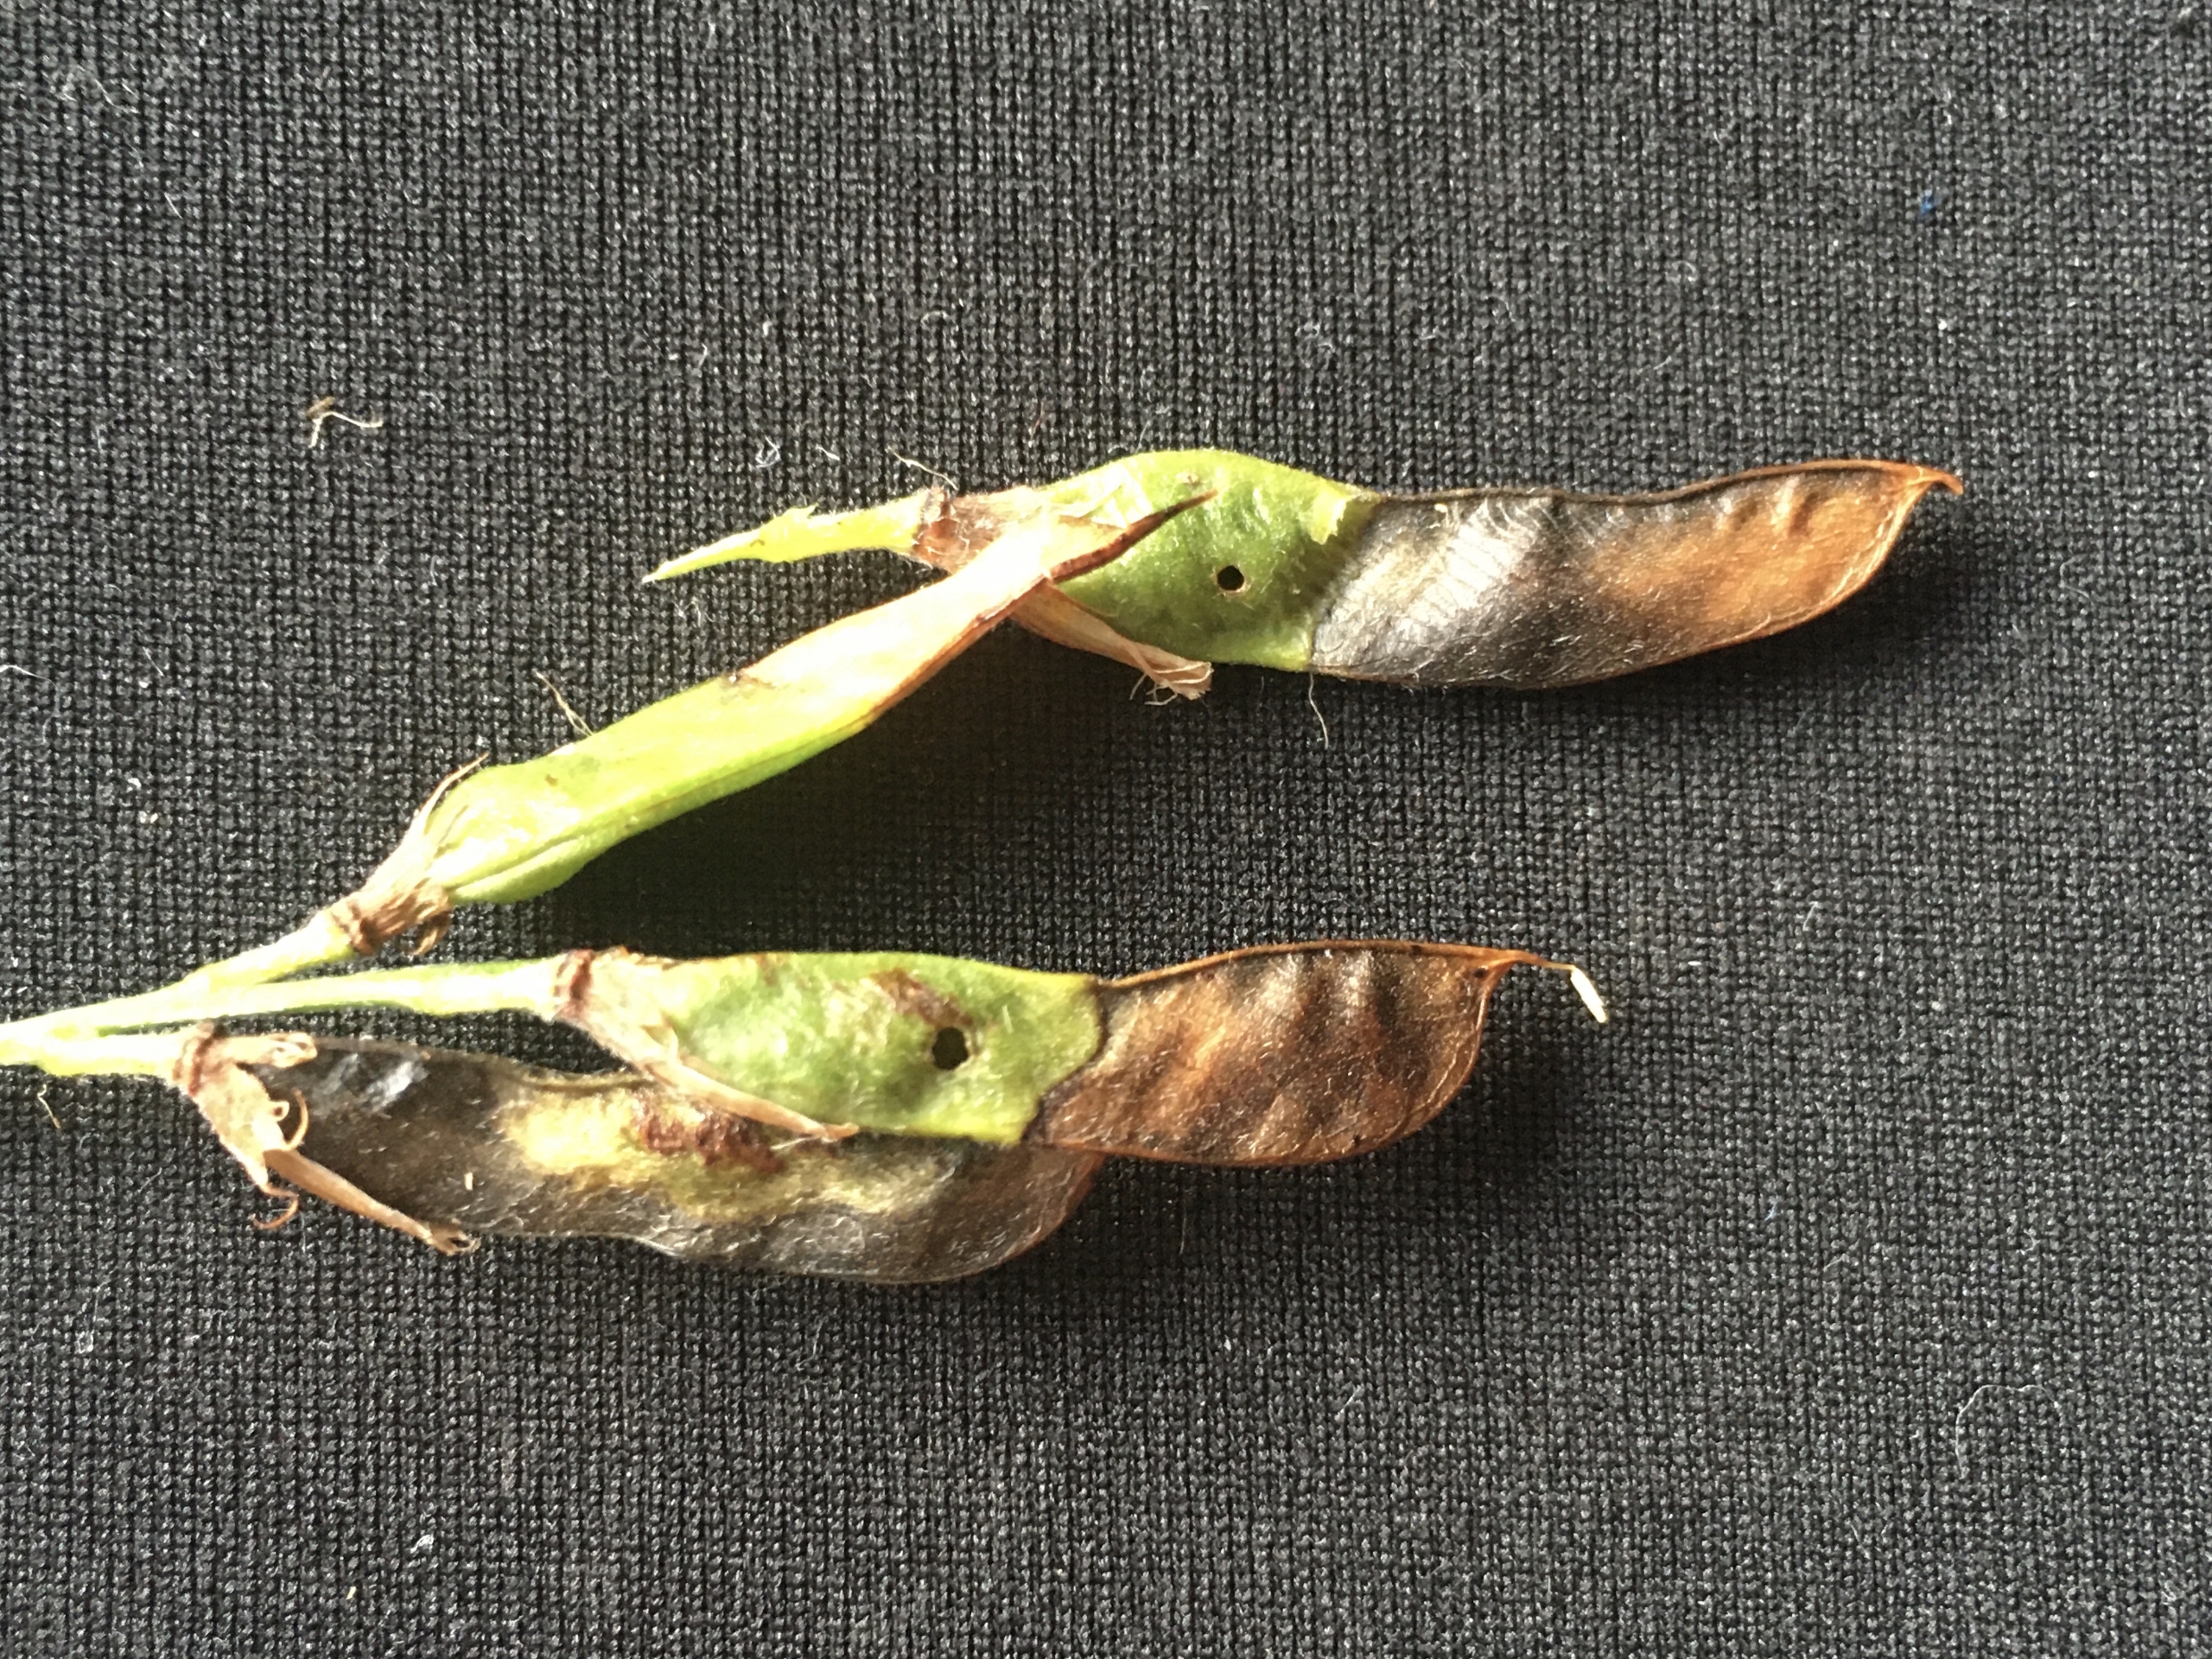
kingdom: Animalia
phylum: Arthropoda
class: Insecta
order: Diptera
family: Cecidomyiidae
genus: Asphondylia
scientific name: Asphondylia lathyri
